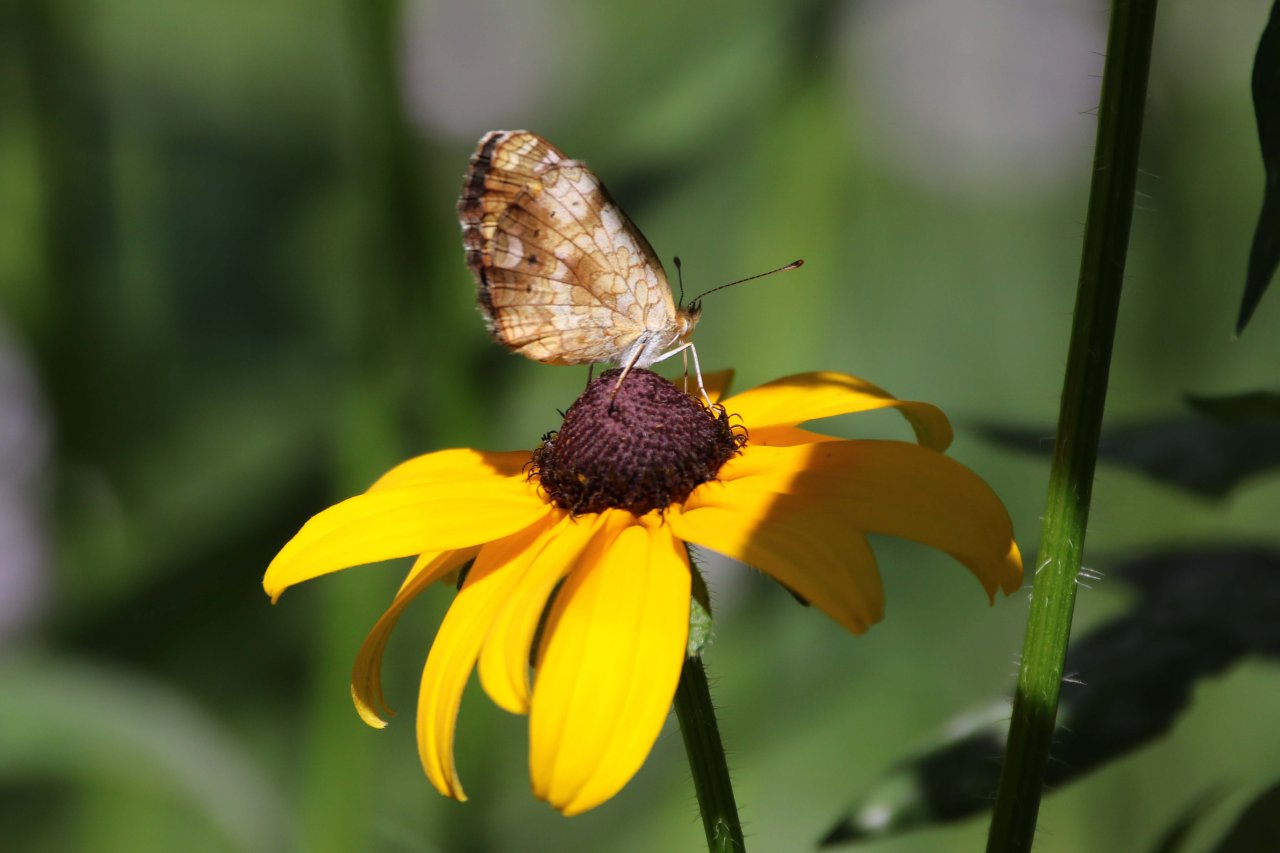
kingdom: Animalia
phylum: Arthropoda
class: Insecta
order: Lepidoptera
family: Nymphalidae
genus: Phyciodes
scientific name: Phyciodes tharos
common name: Pearl Crescent
